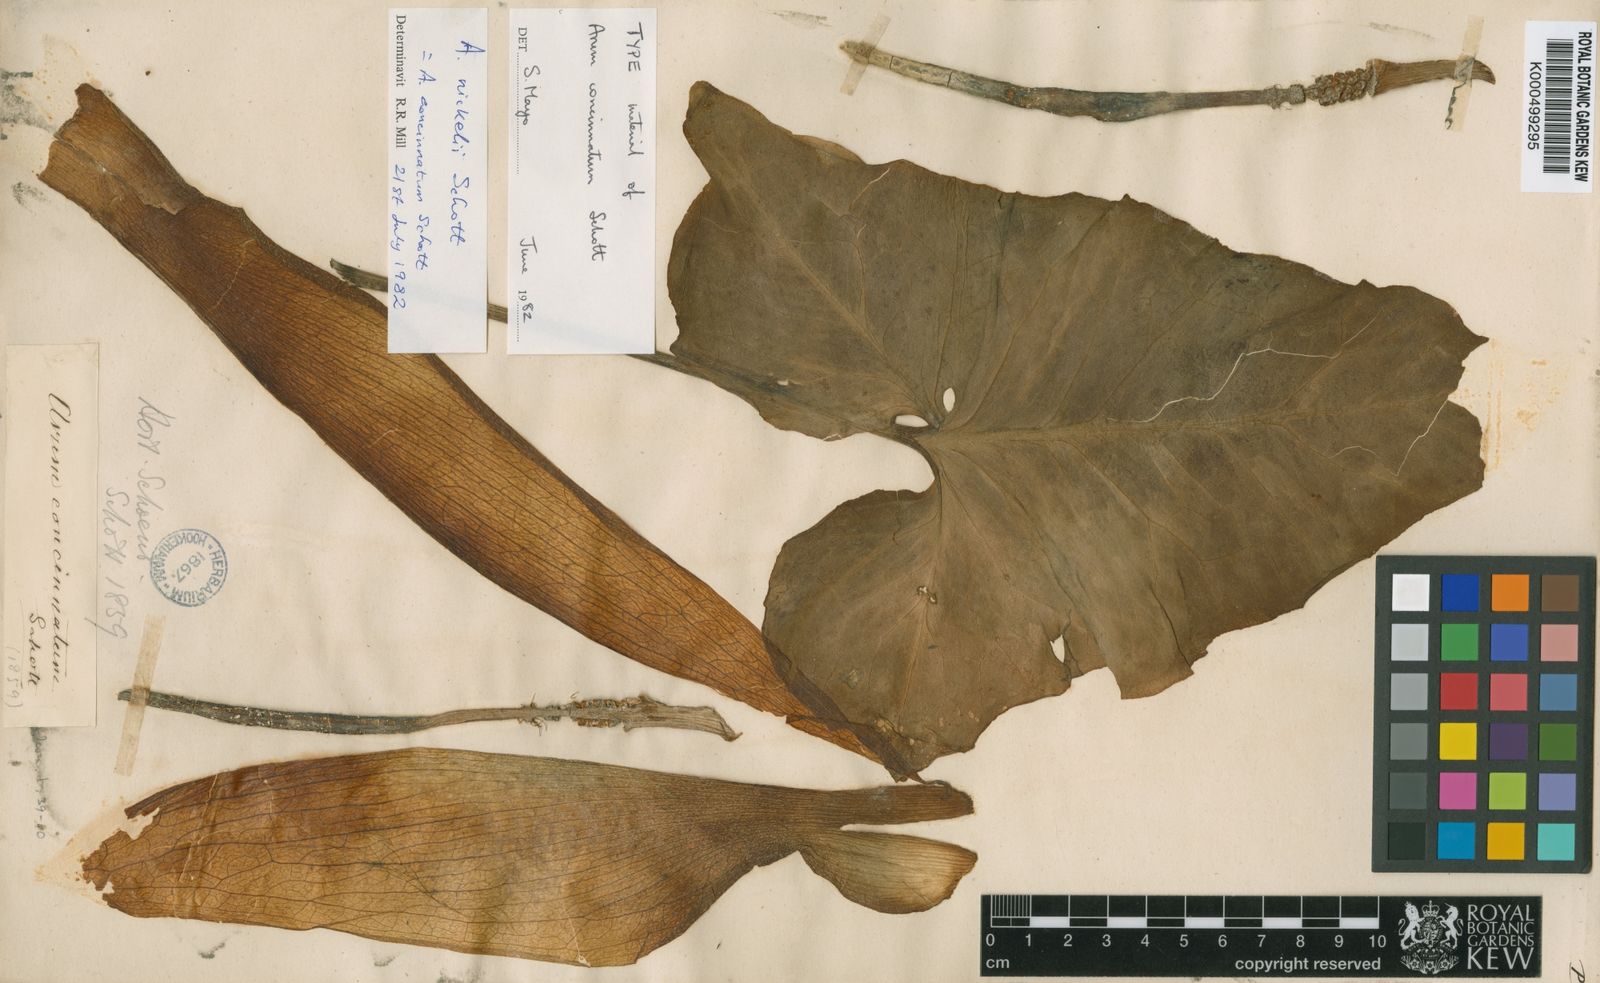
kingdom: Plantae
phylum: Tracheophyta
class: Liliopsida
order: Alismatales
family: Araceae
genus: Arum
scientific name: Arum italicum
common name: Italian lords-and-ladies
